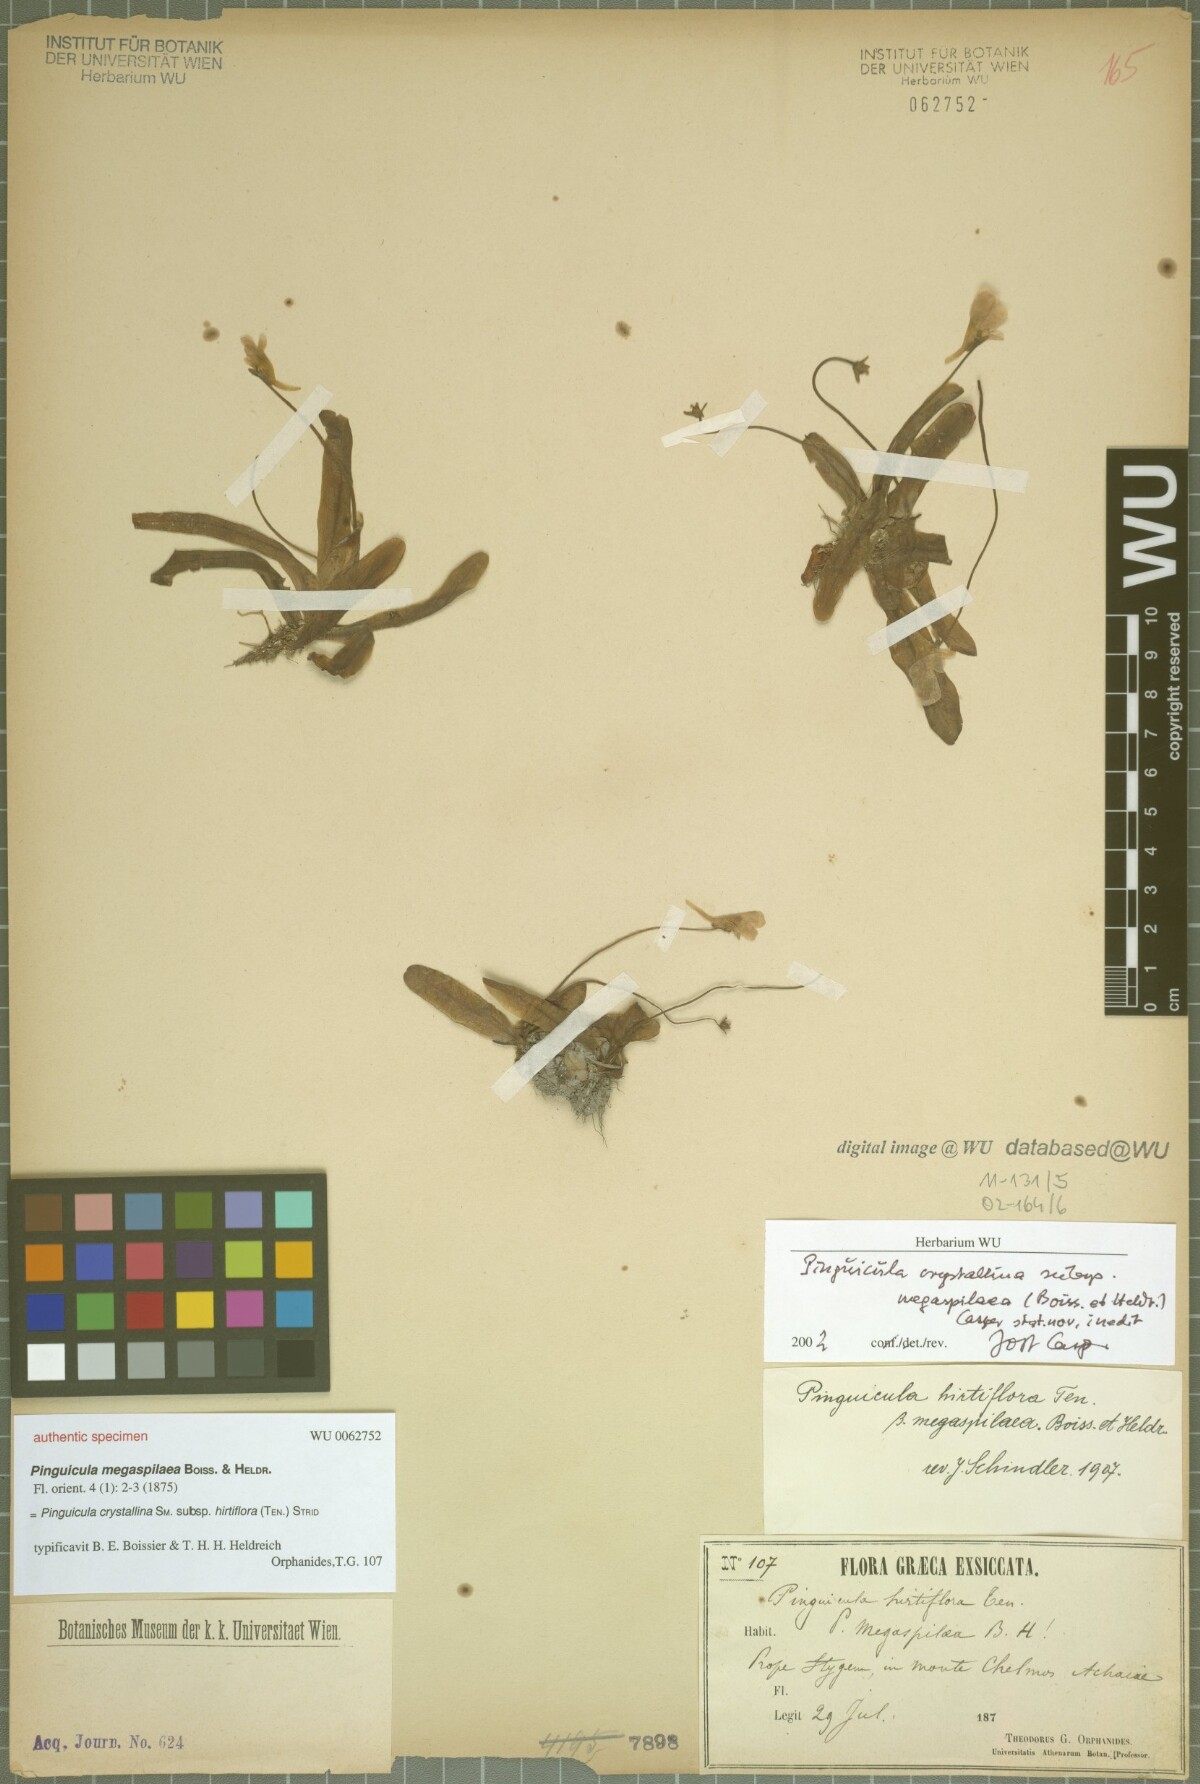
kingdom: Plantae
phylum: Tracheophyta
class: Magnoliopsida
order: Lamiales
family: Lentibulariaceae
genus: Pinguicula
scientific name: Pinguicula crystallina
